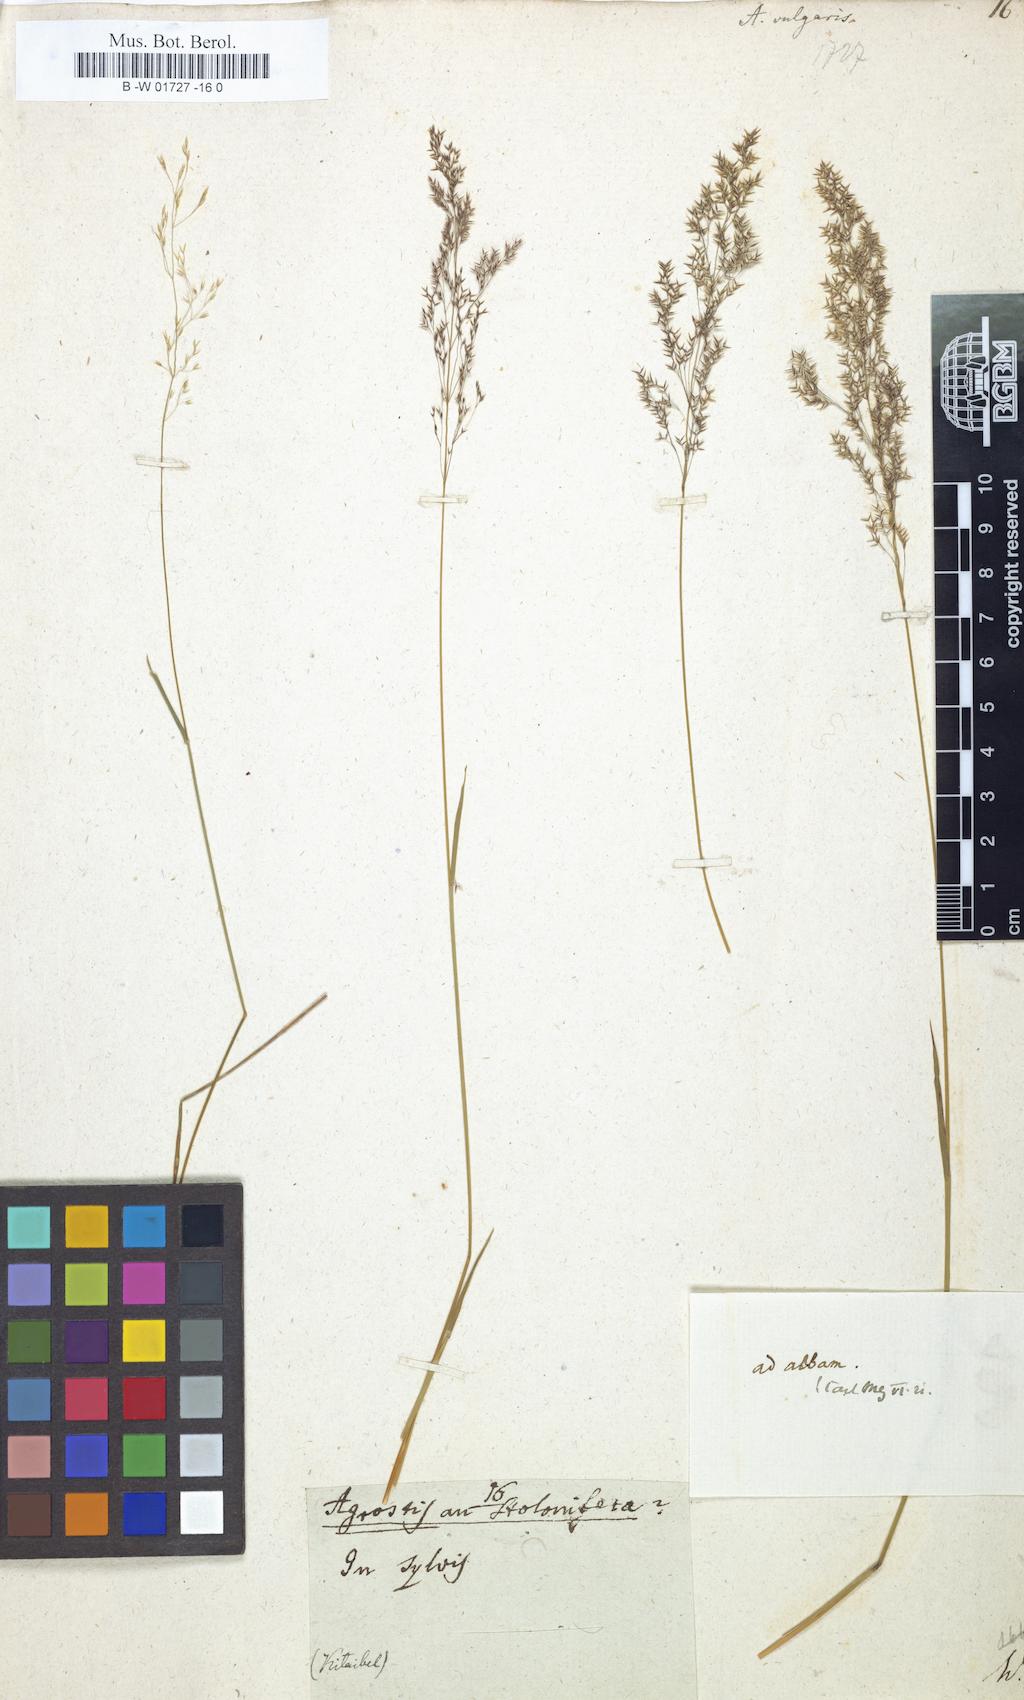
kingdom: Plantae
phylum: Tracheophyta
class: Liliopsida
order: Poales
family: Poaceae
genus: Agrostis
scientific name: Agrostis capillaris
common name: Colonial bentgrass
